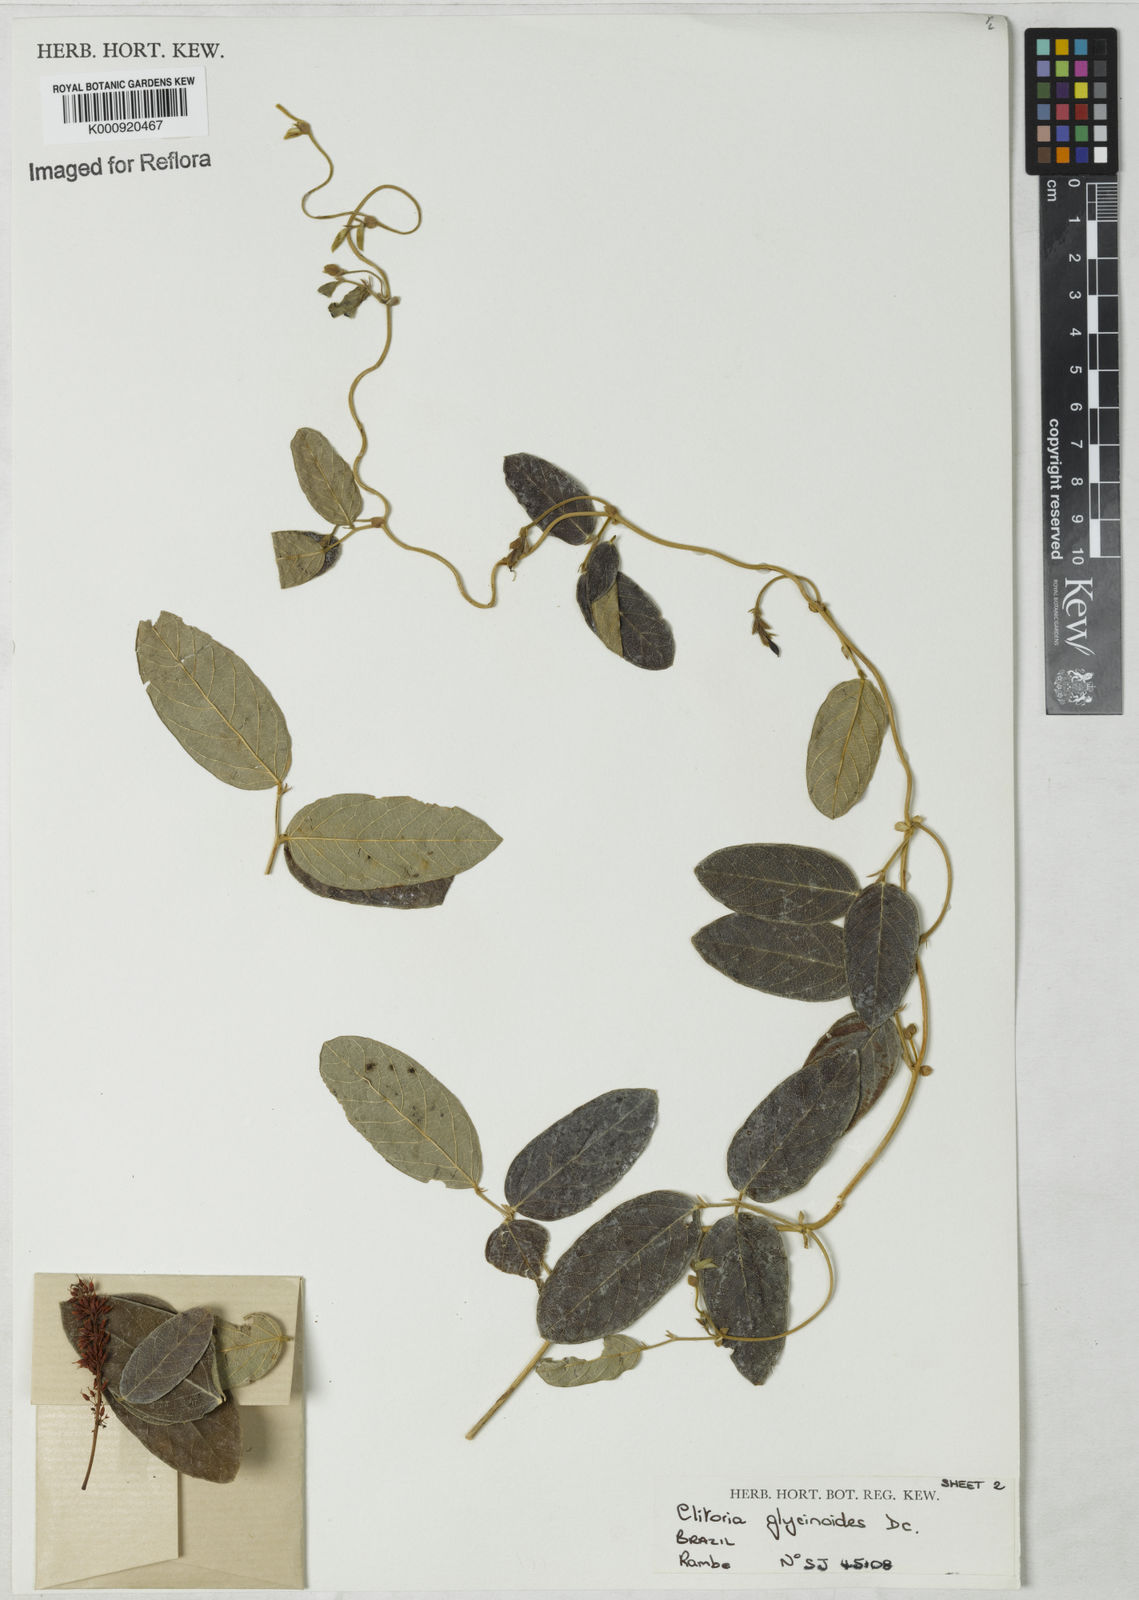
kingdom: Plantae
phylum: Tracheophyta
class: Magnoliopsida
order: Fabales
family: Fabaceae
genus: Clitoria
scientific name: Clitoria
